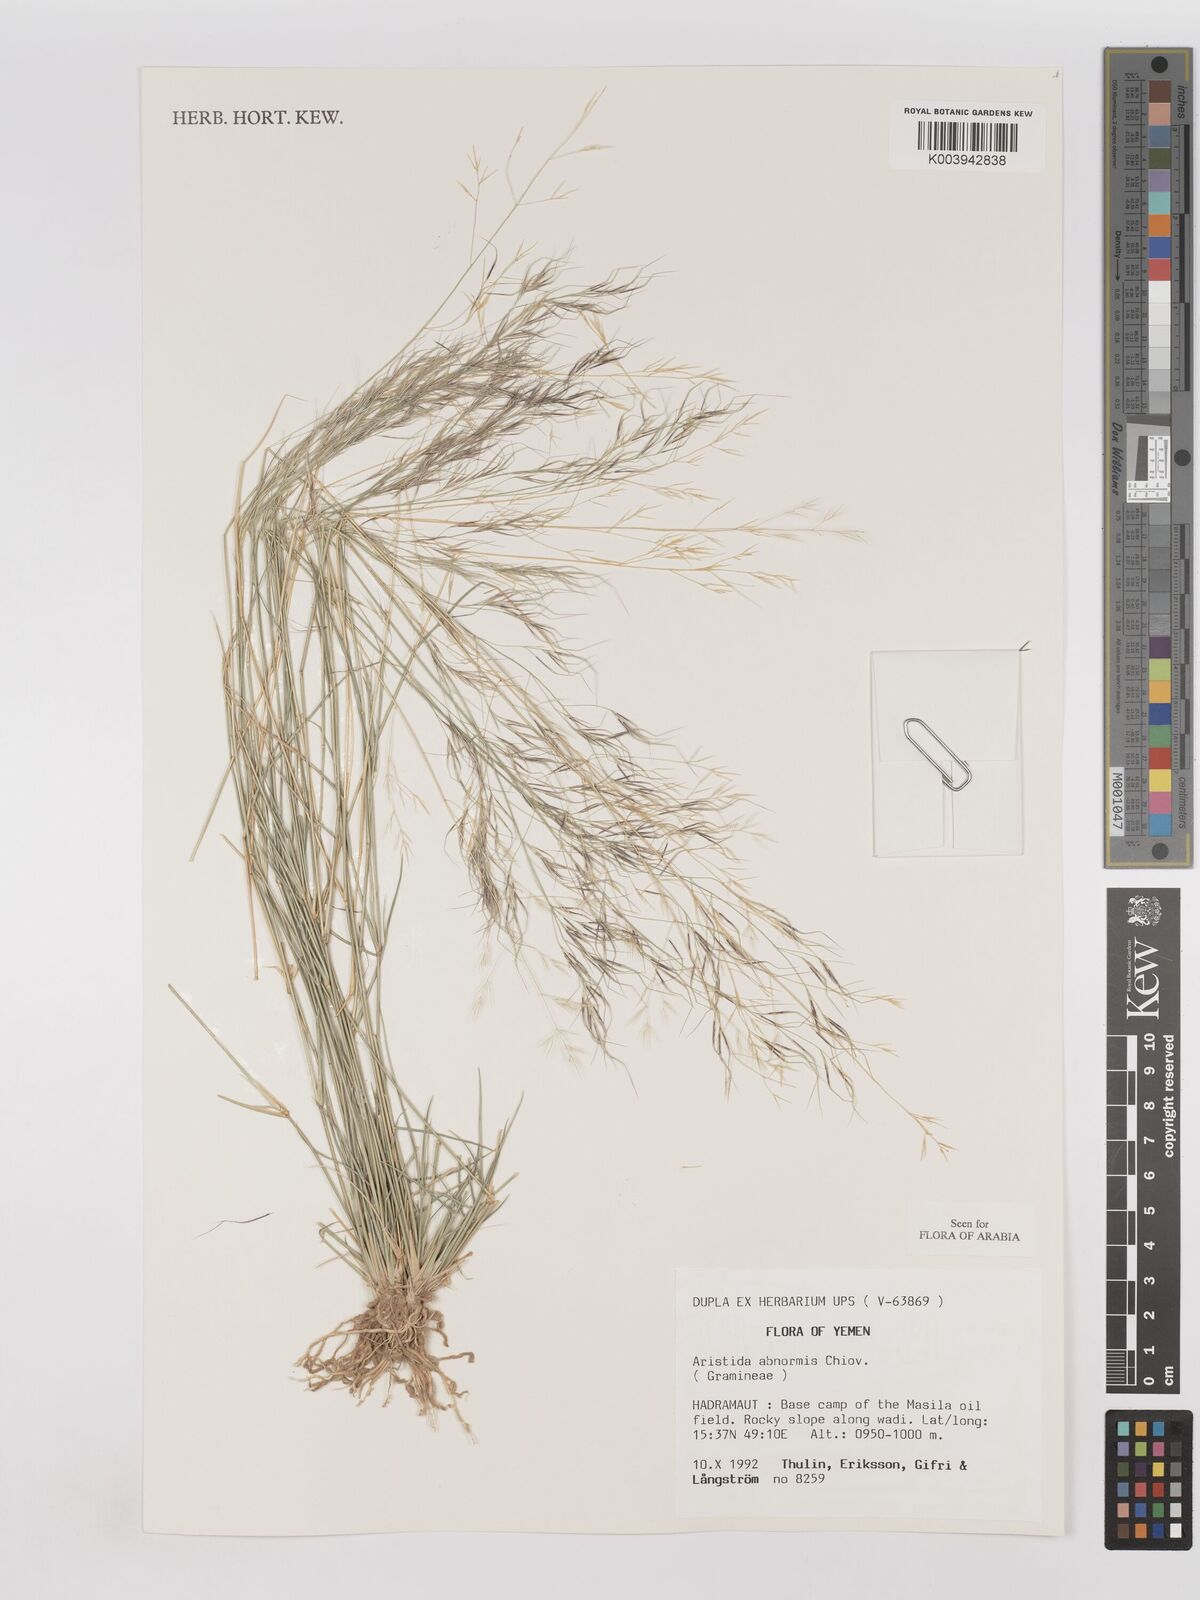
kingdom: Plantae
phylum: Tracheophyta
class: Liliopsida
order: Poales
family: Poaceae
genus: Aristida
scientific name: Aristida abnormis
